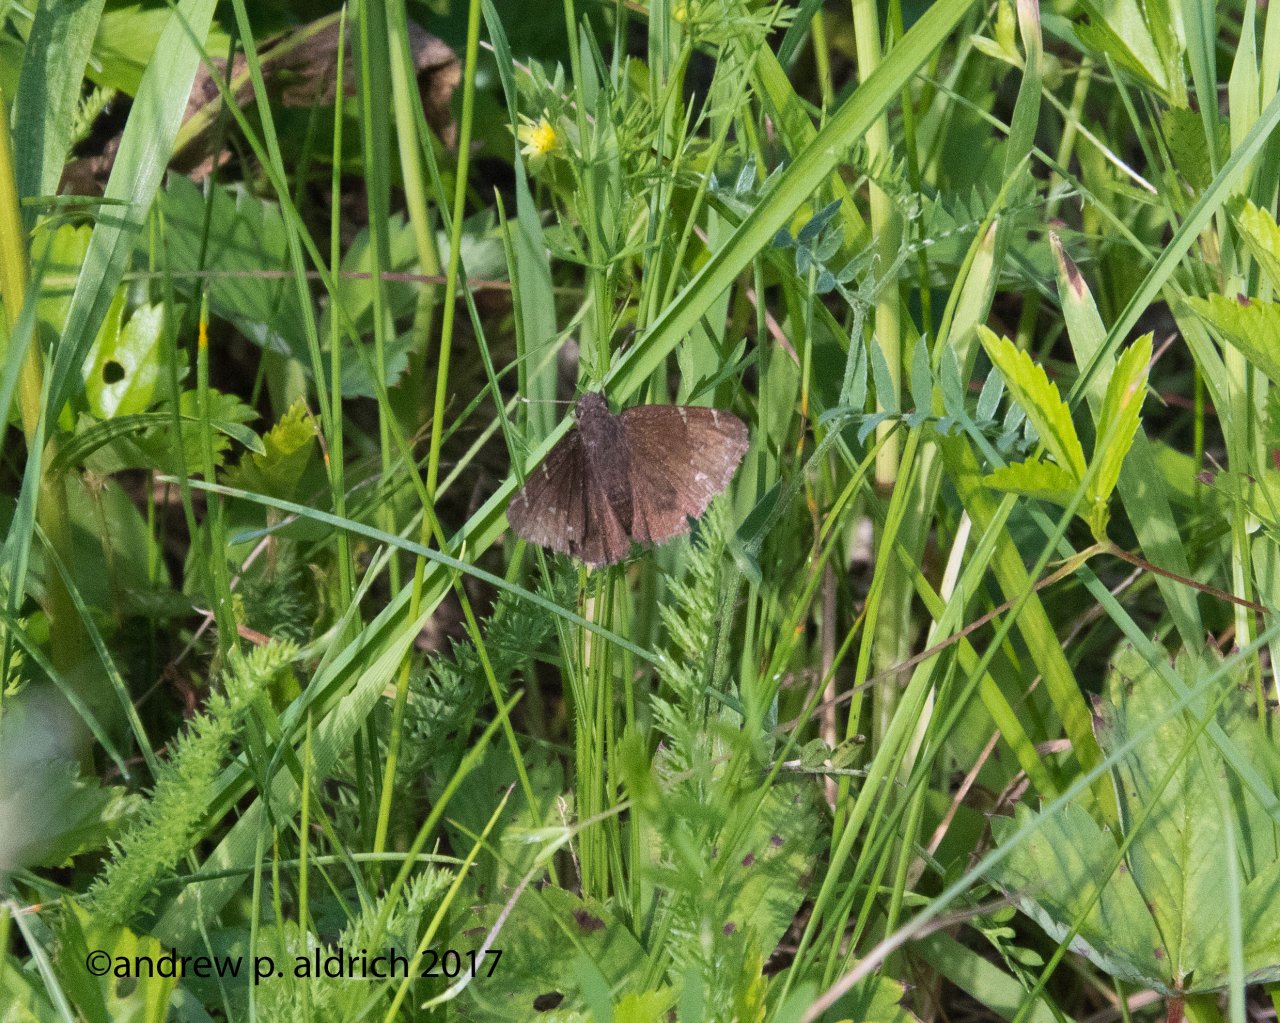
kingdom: Animalia
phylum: Arthropoda
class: Insecta
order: Lepidoptera
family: Hesperiidae
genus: Autochton
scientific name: Autochton
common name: Northern Cloudywing
